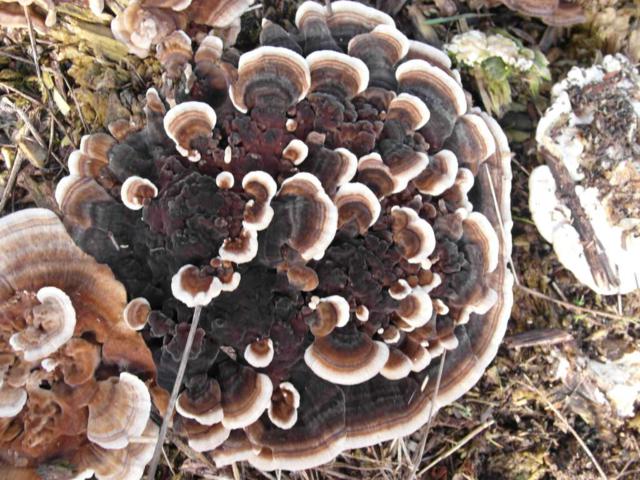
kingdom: Fungi
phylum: Basidiomycota
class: Agaricomycetes
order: Polyporales
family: Polyporaceae
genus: Trametes
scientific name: Trametes versicolor
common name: broget læderporesvamp
